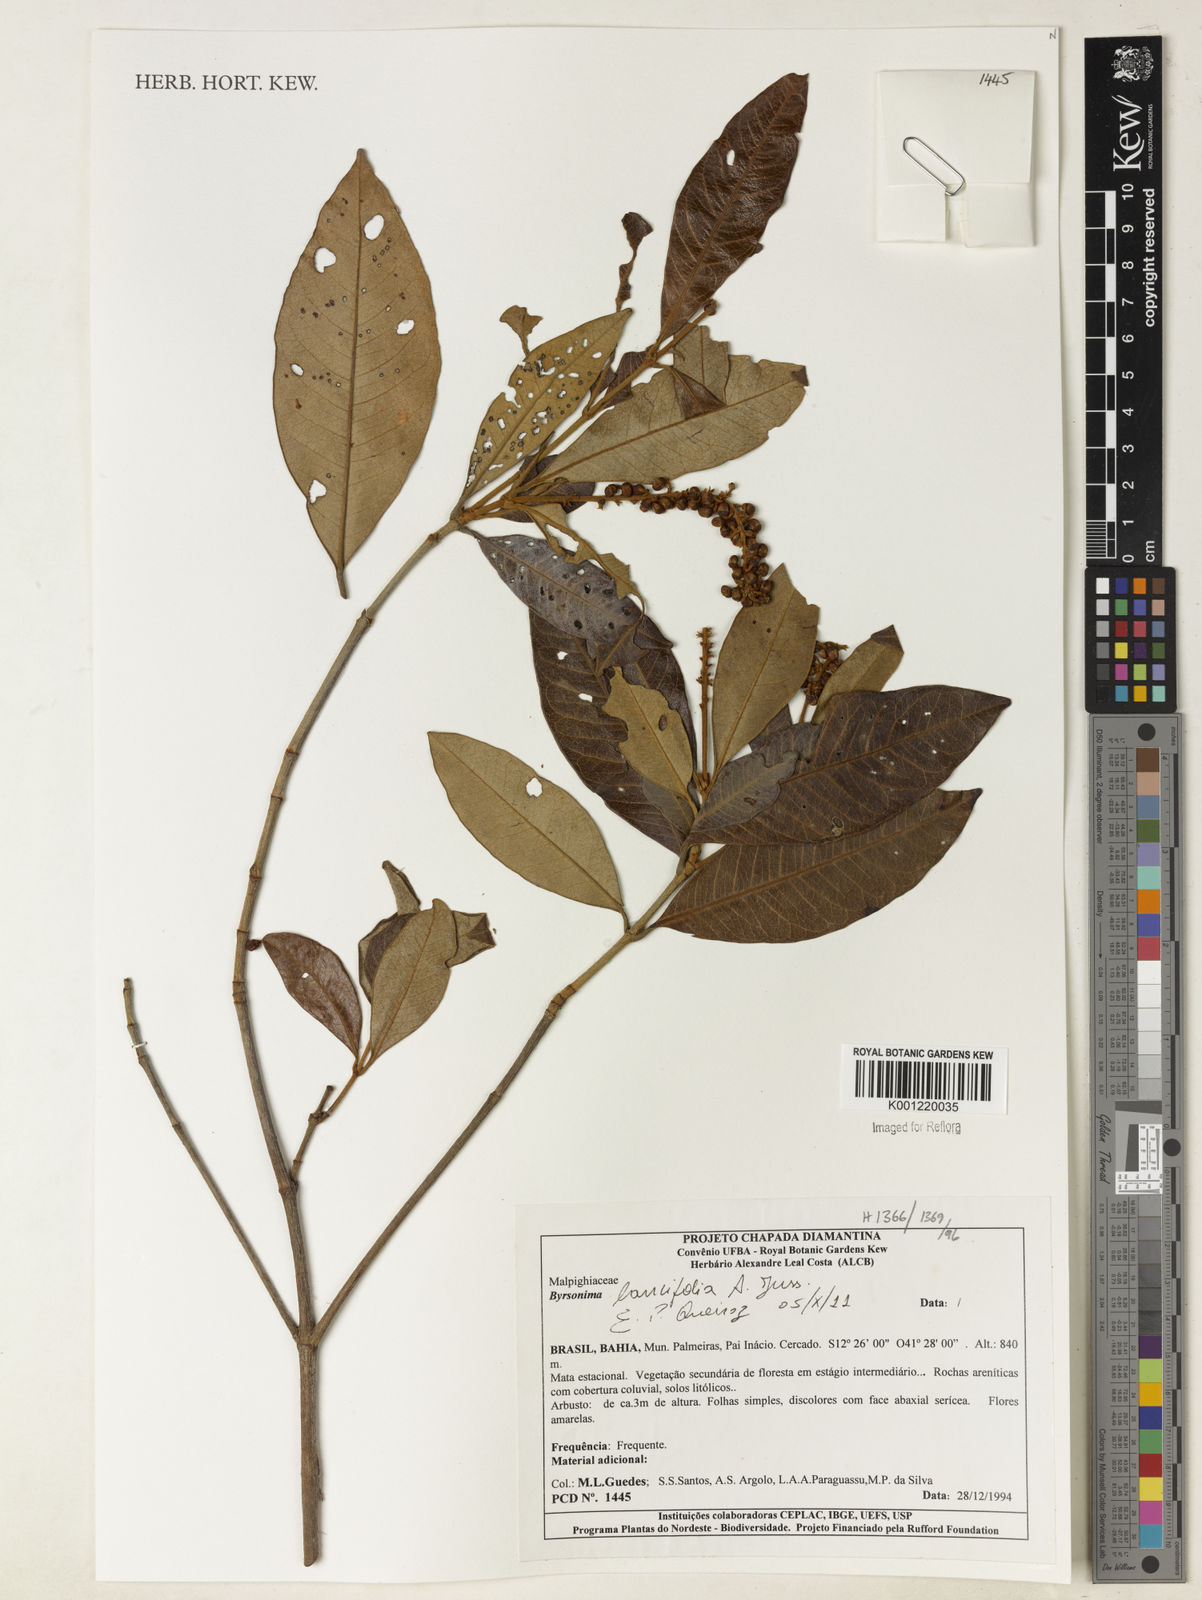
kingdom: Plantae
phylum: Tracheophyta
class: Magnoliopsida
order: Malpighiales
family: Malpighiaceae
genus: Byrsonima
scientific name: Byrsonima lancifolia
